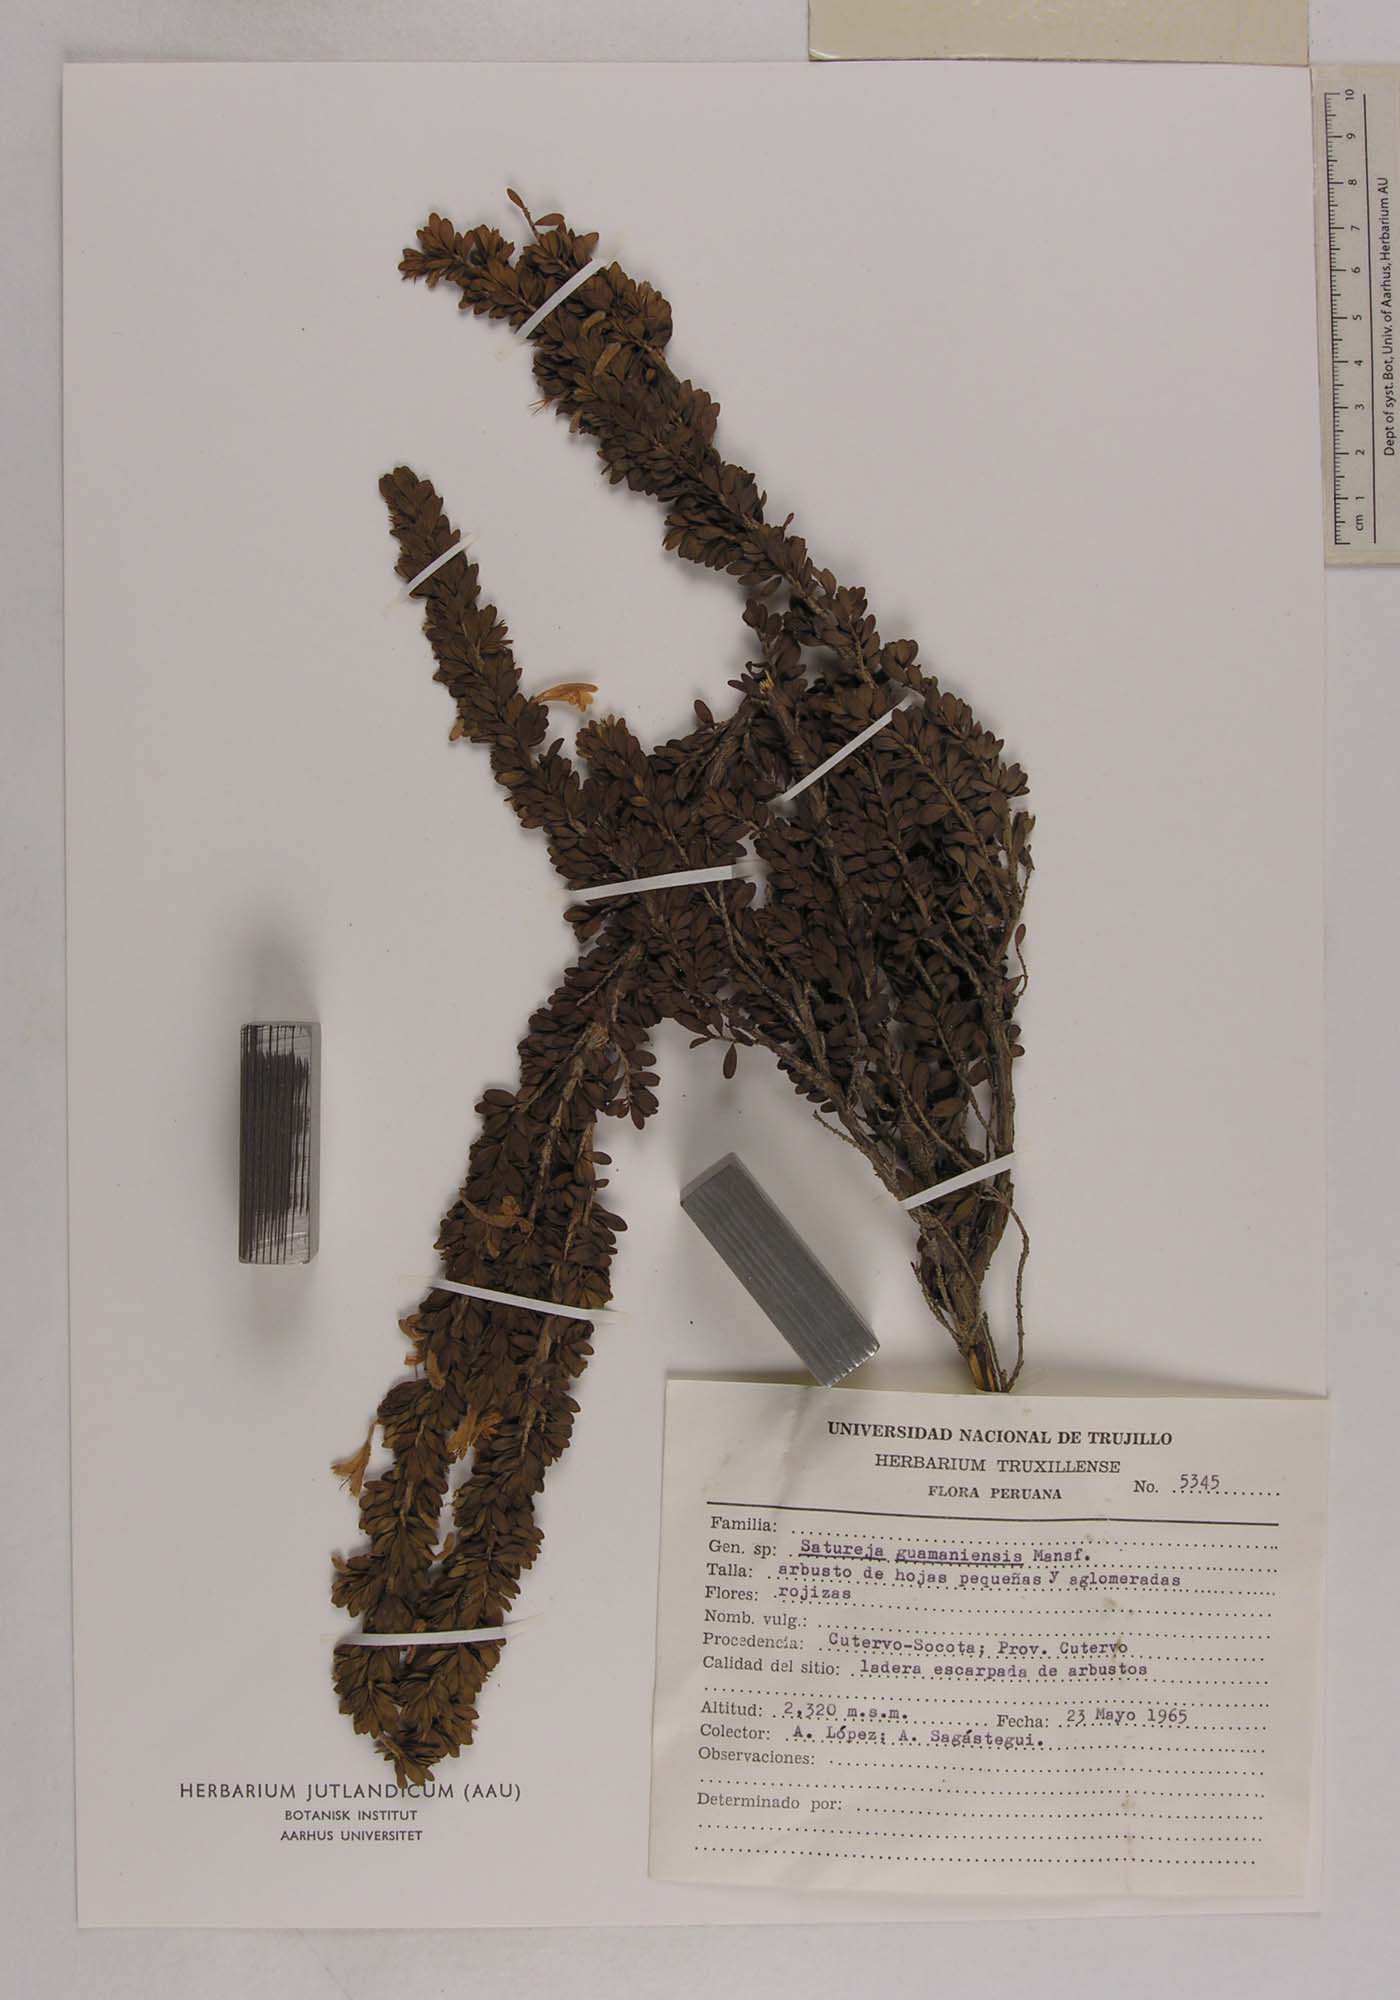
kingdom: Plantae
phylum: Tracheophyta
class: Magnoliopsida
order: Lamiales
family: Lamiaceae
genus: Clinopodium
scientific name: Clinopodium obovatum
